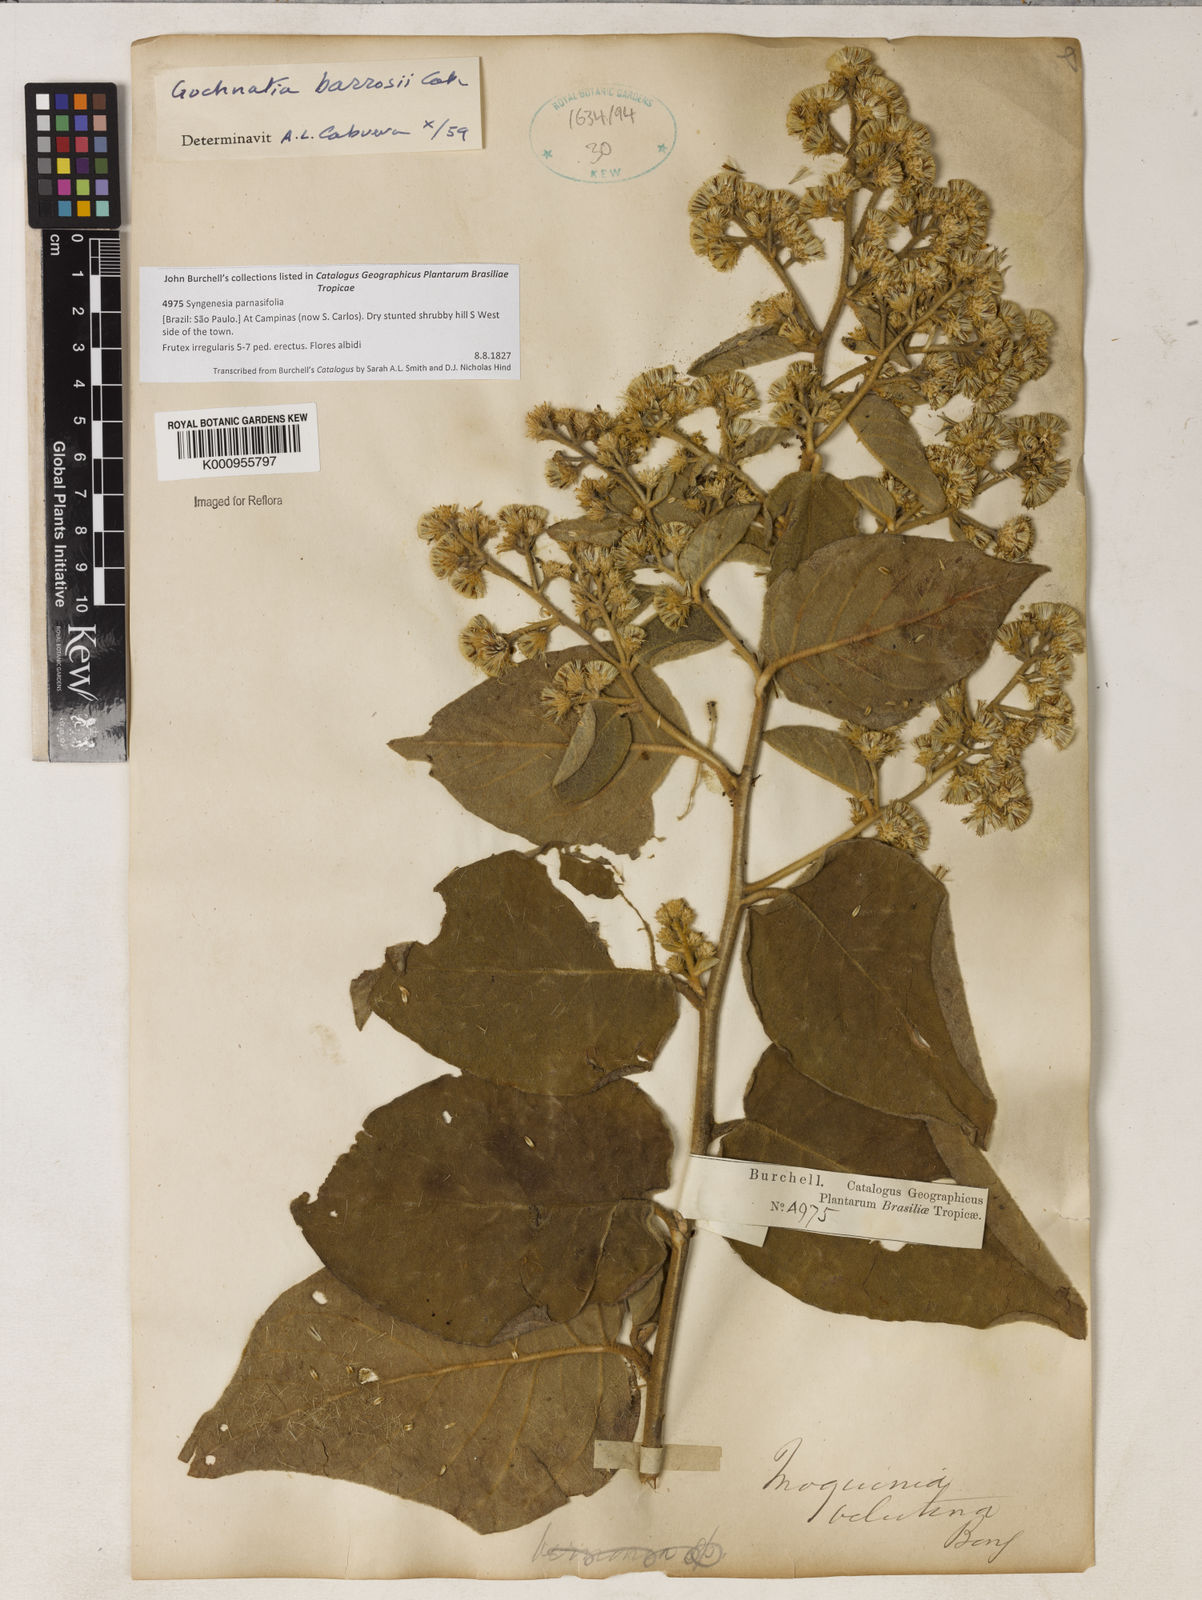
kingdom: Plantae
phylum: Tracheophyta
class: Magnoliopsida
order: Asterales
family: Asteraceae
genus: Moquiniastrum
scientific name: Moquiniastrum barrosoae
